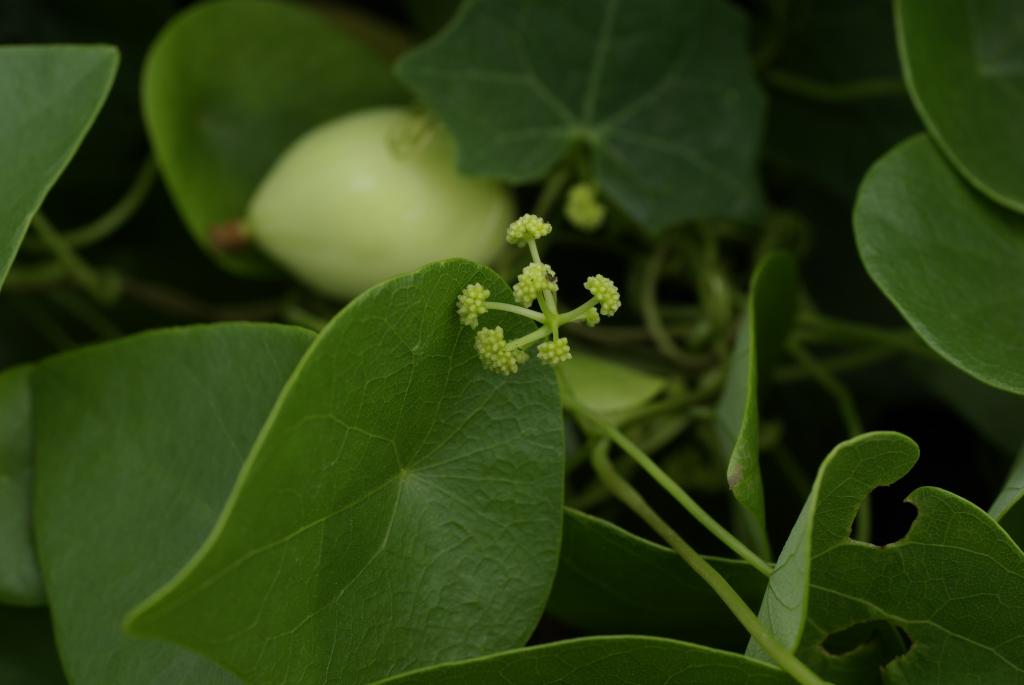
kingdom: Plantae
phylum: Tracheophyta
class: Magnoliopsida
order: Ranunculales
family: Menispermaceae
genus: Stephania
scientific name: Stephania japonica
